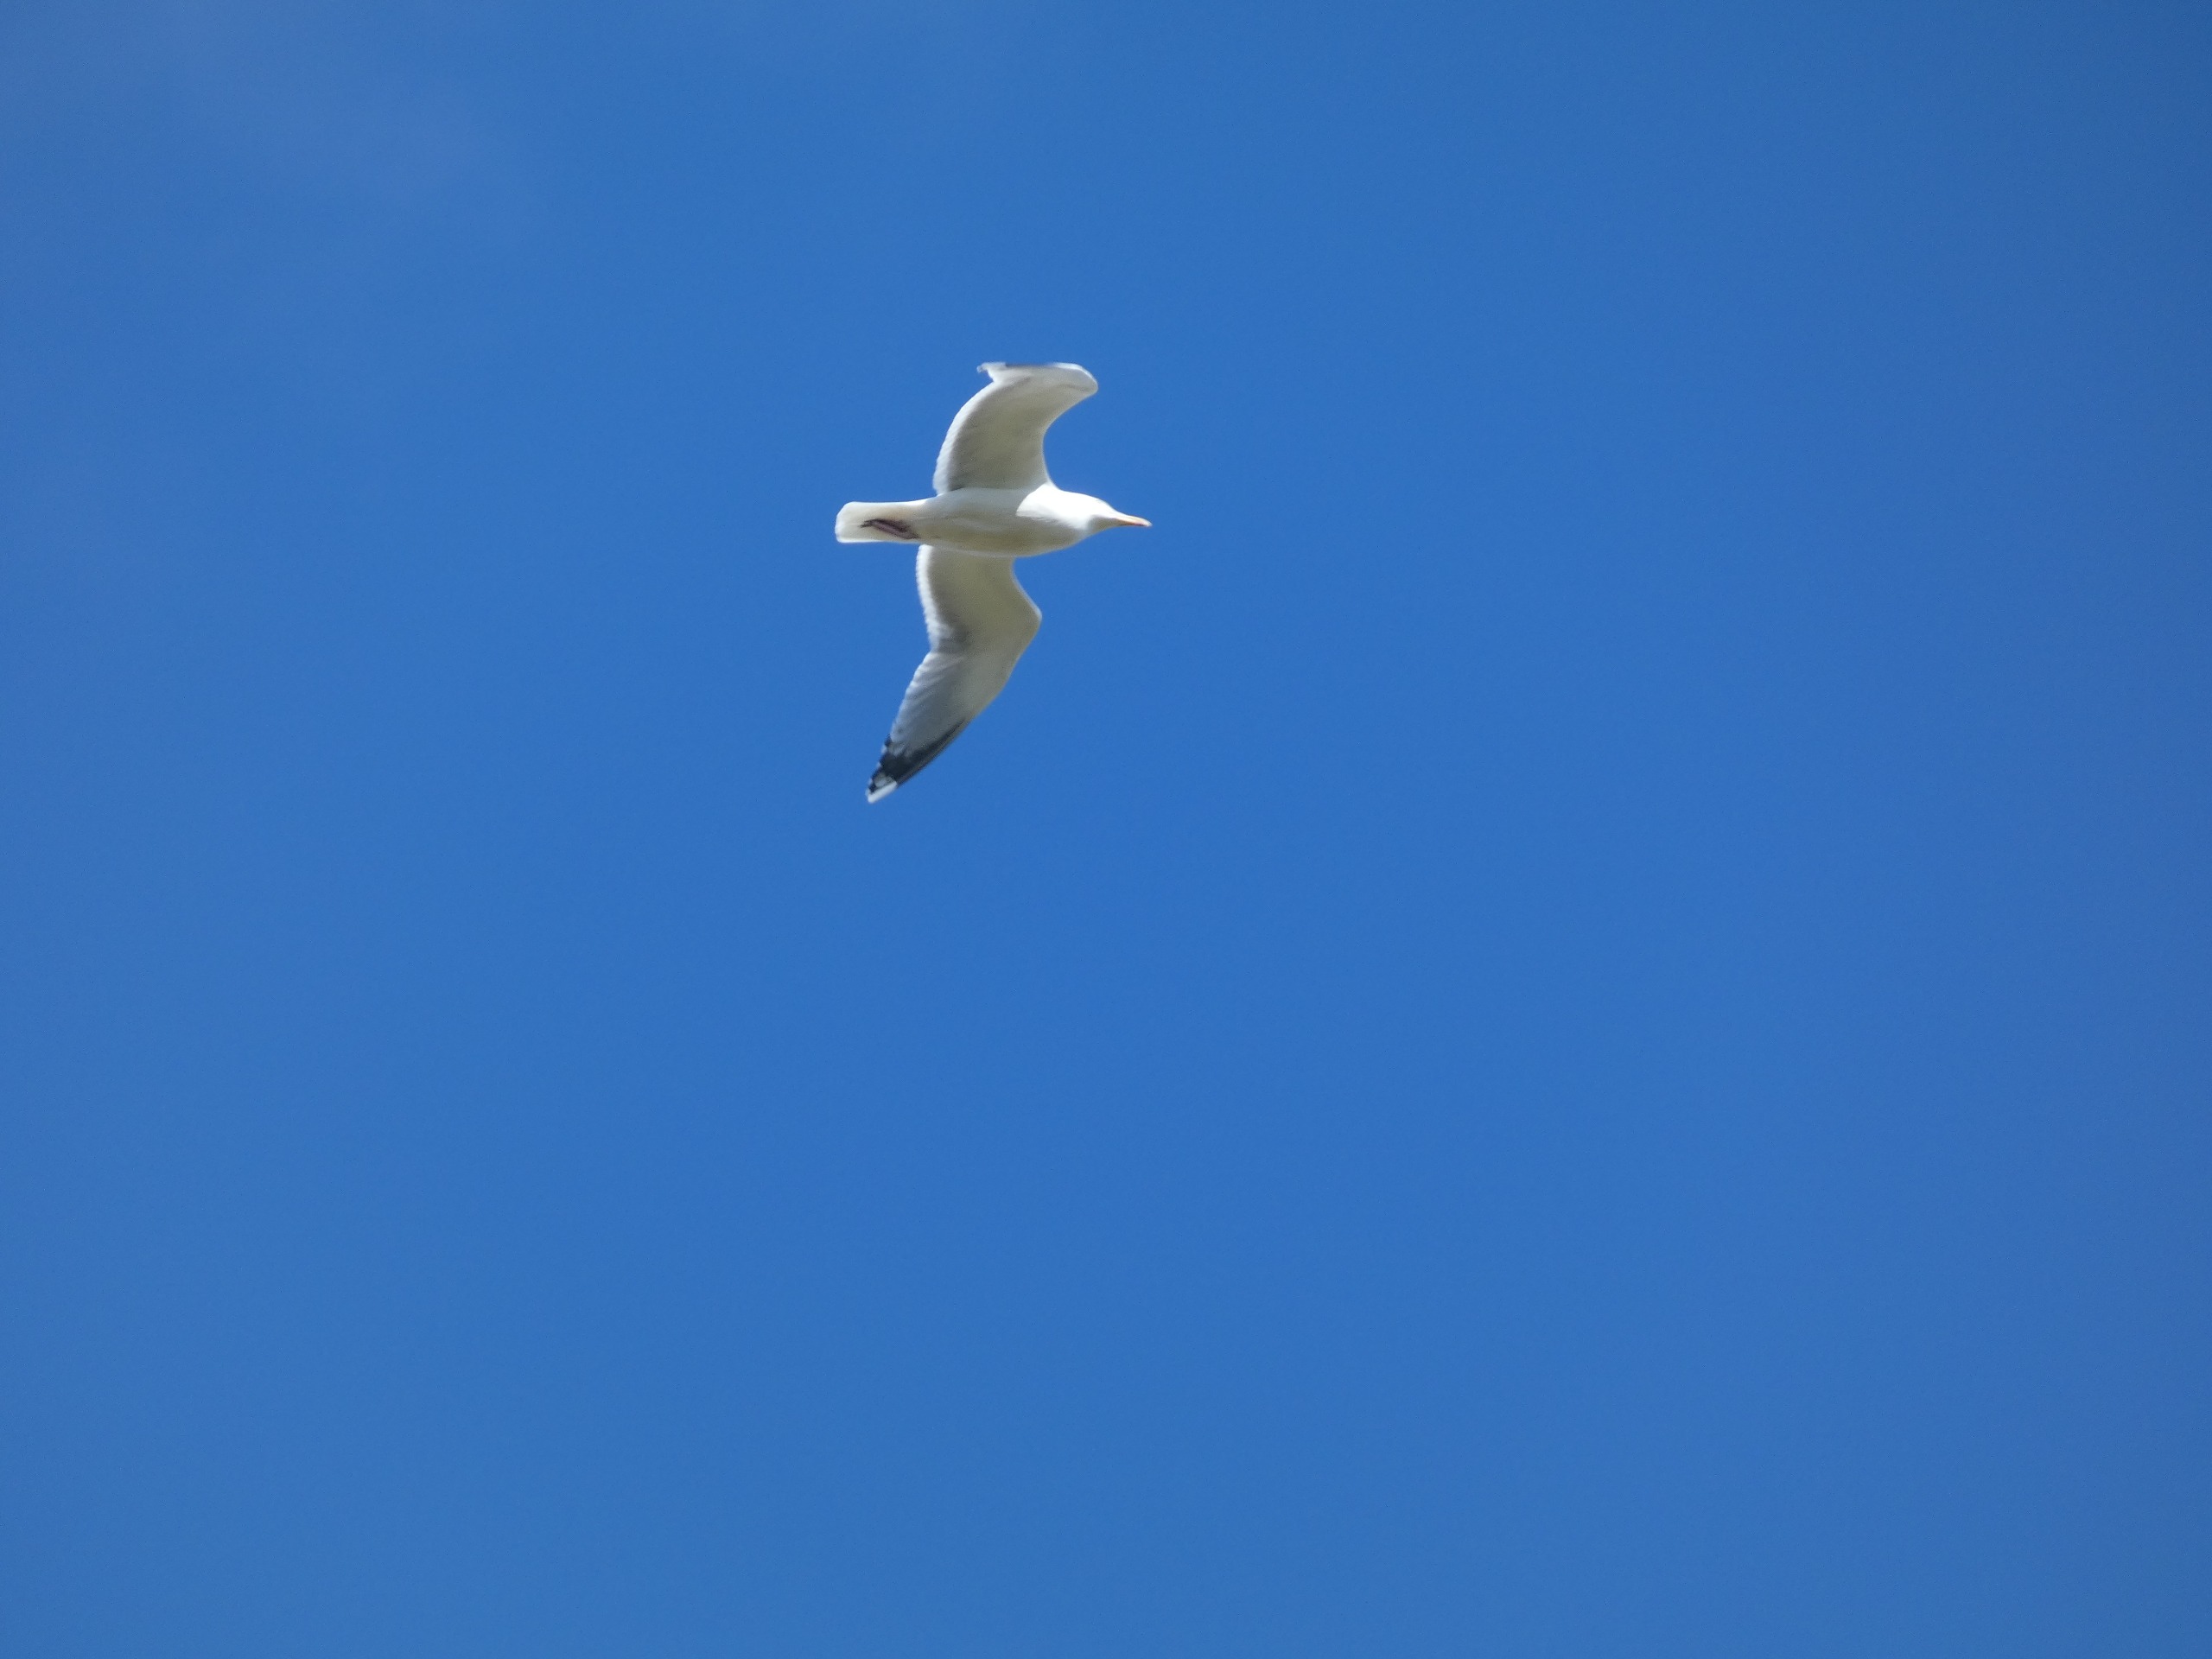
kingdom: Animalia
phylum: Chordata
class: Aves
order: Charadriiformes
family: Laridae
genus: Larus
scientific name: Larus argentatus
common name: Sølvmåge
